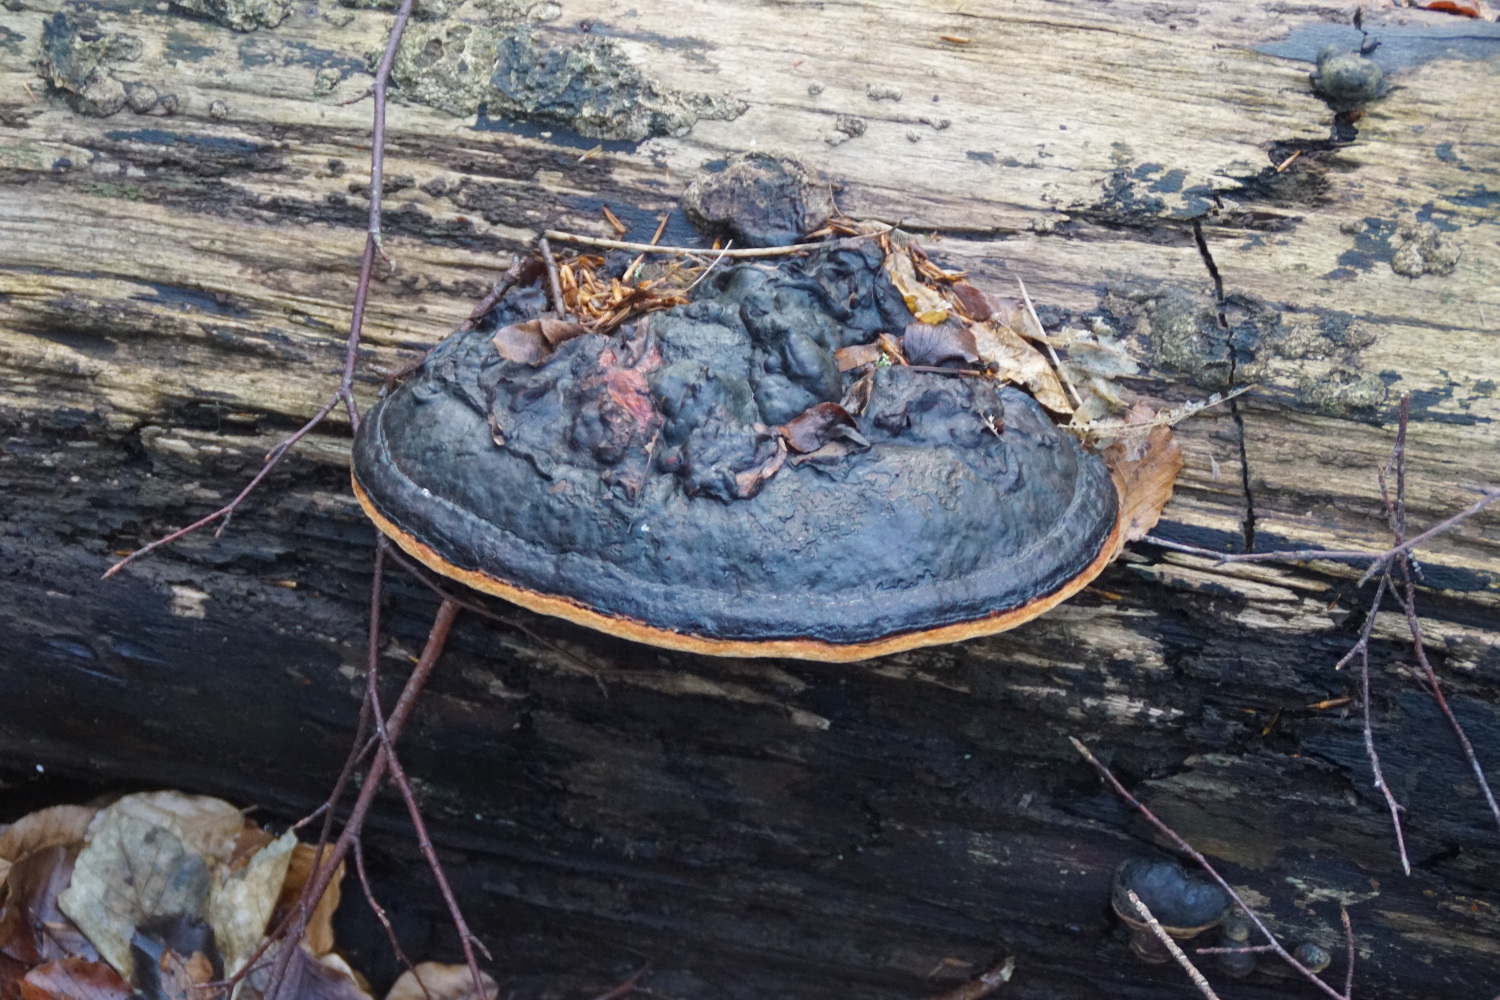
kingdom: Fungi
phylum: Basidiomycota
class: Agaricomycetes
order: Polyporales
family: Fomitopsidaceae
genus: Fomitopsis
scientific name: Fomitopsis pinicola
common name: randbæltet hovporesvamp
